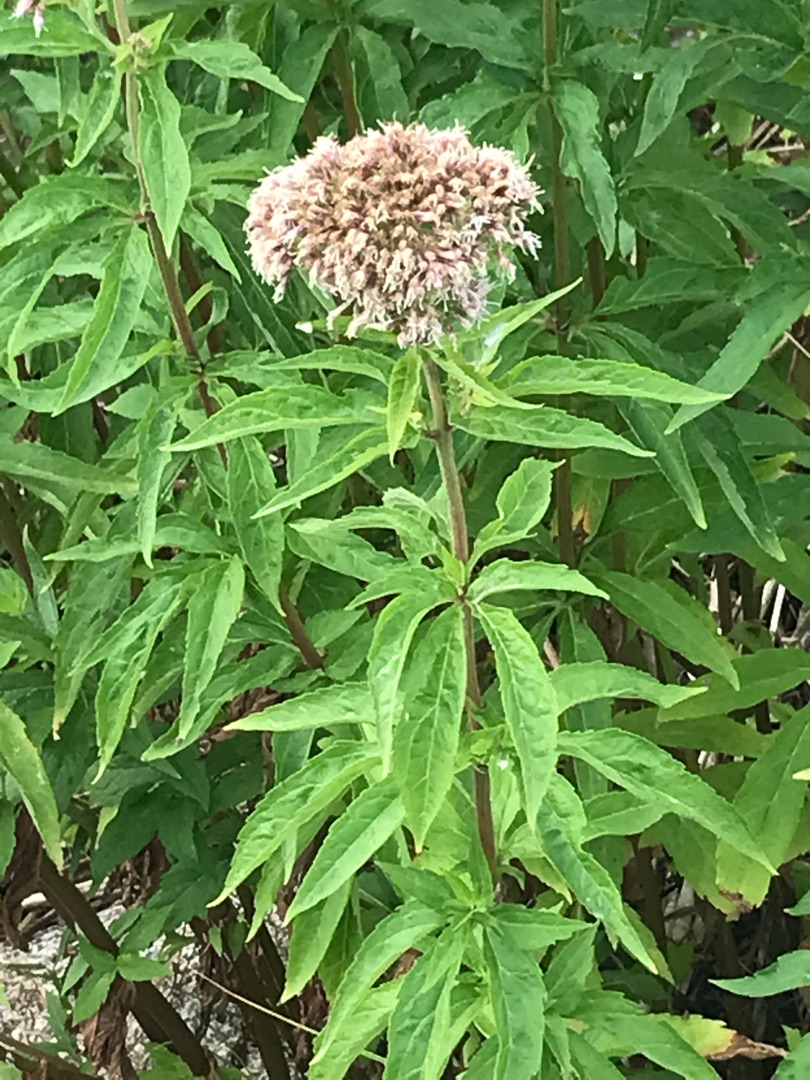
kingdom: Plantae
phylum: Tracheophyta
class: Magnoliopsida
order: Asterales
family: Asteraceae
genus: Eupatorium
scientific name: Eupatorium cannabinum
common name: Hjortetrøst
